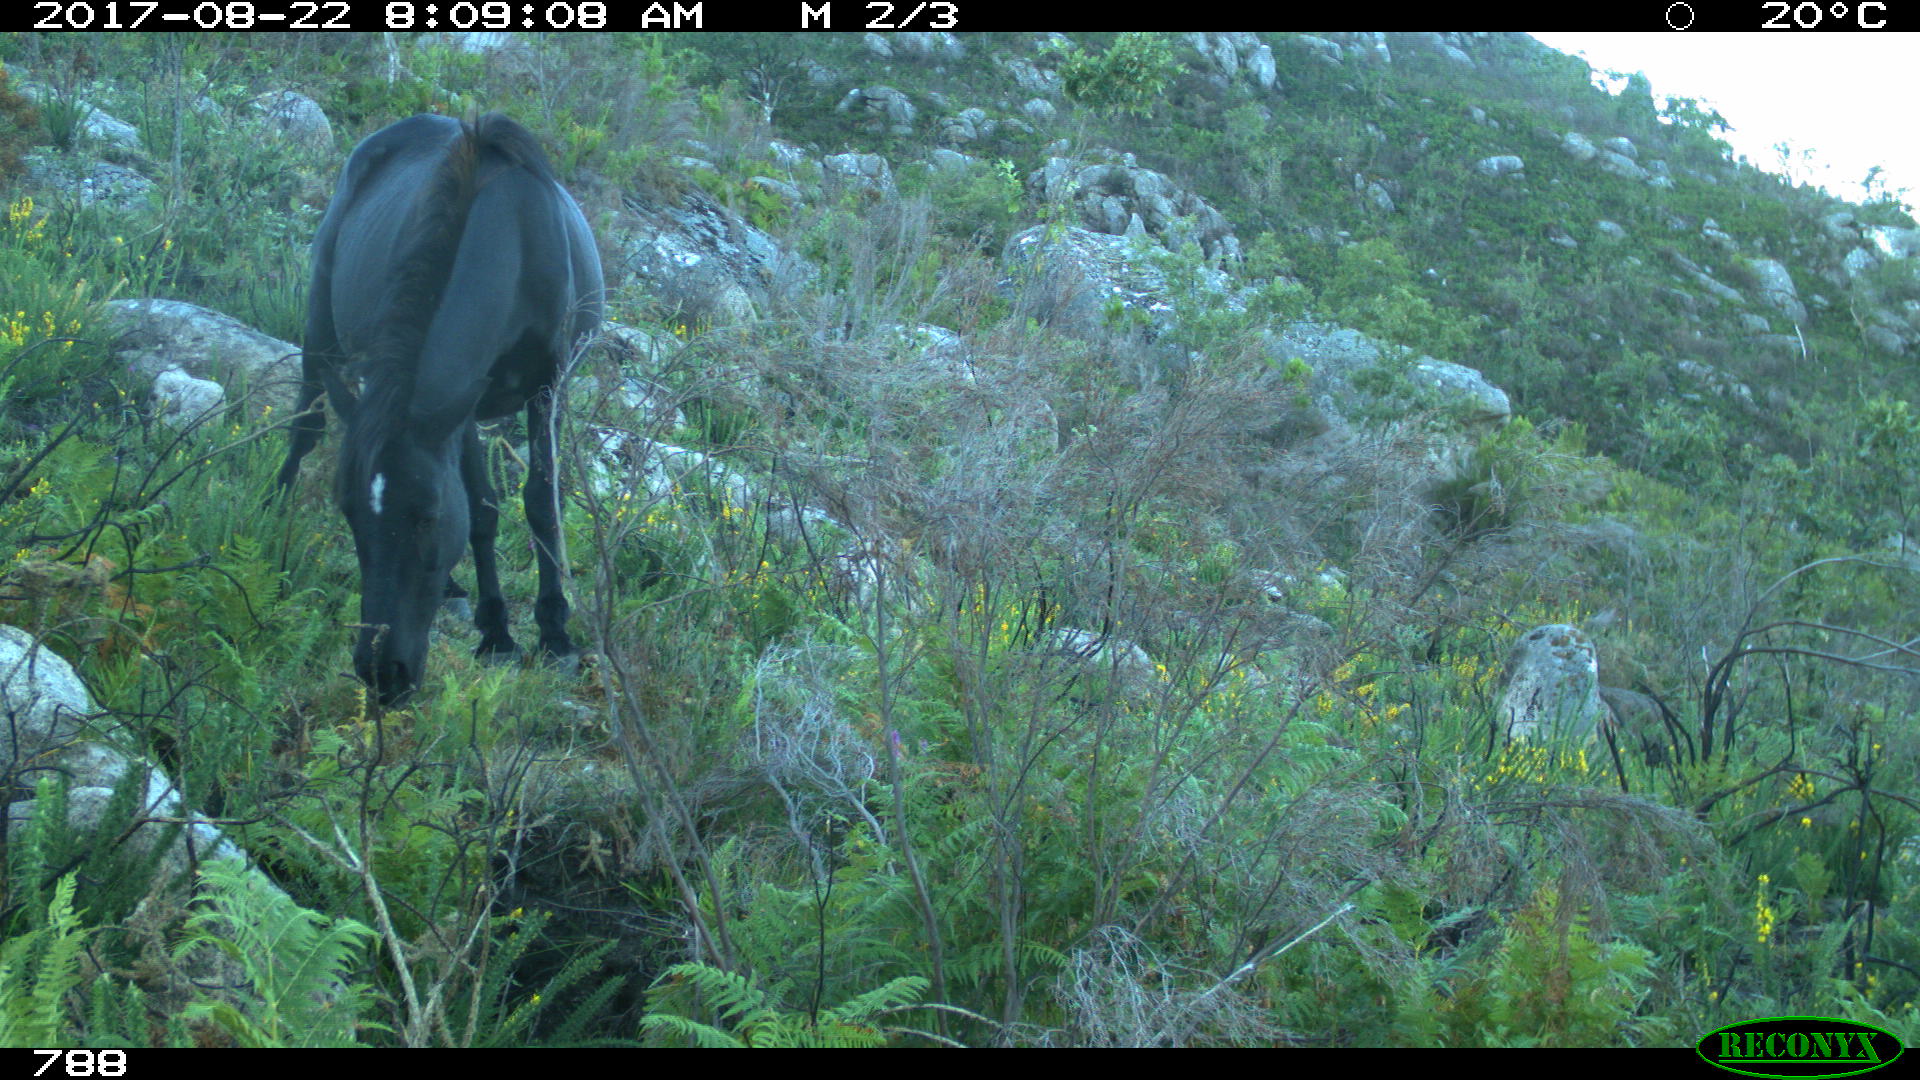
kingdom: Animalia
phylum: Chordata
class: Mammalia
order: Perissodactyla
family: Equidae
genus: Equus
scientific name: Equus caballus
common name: Horse
